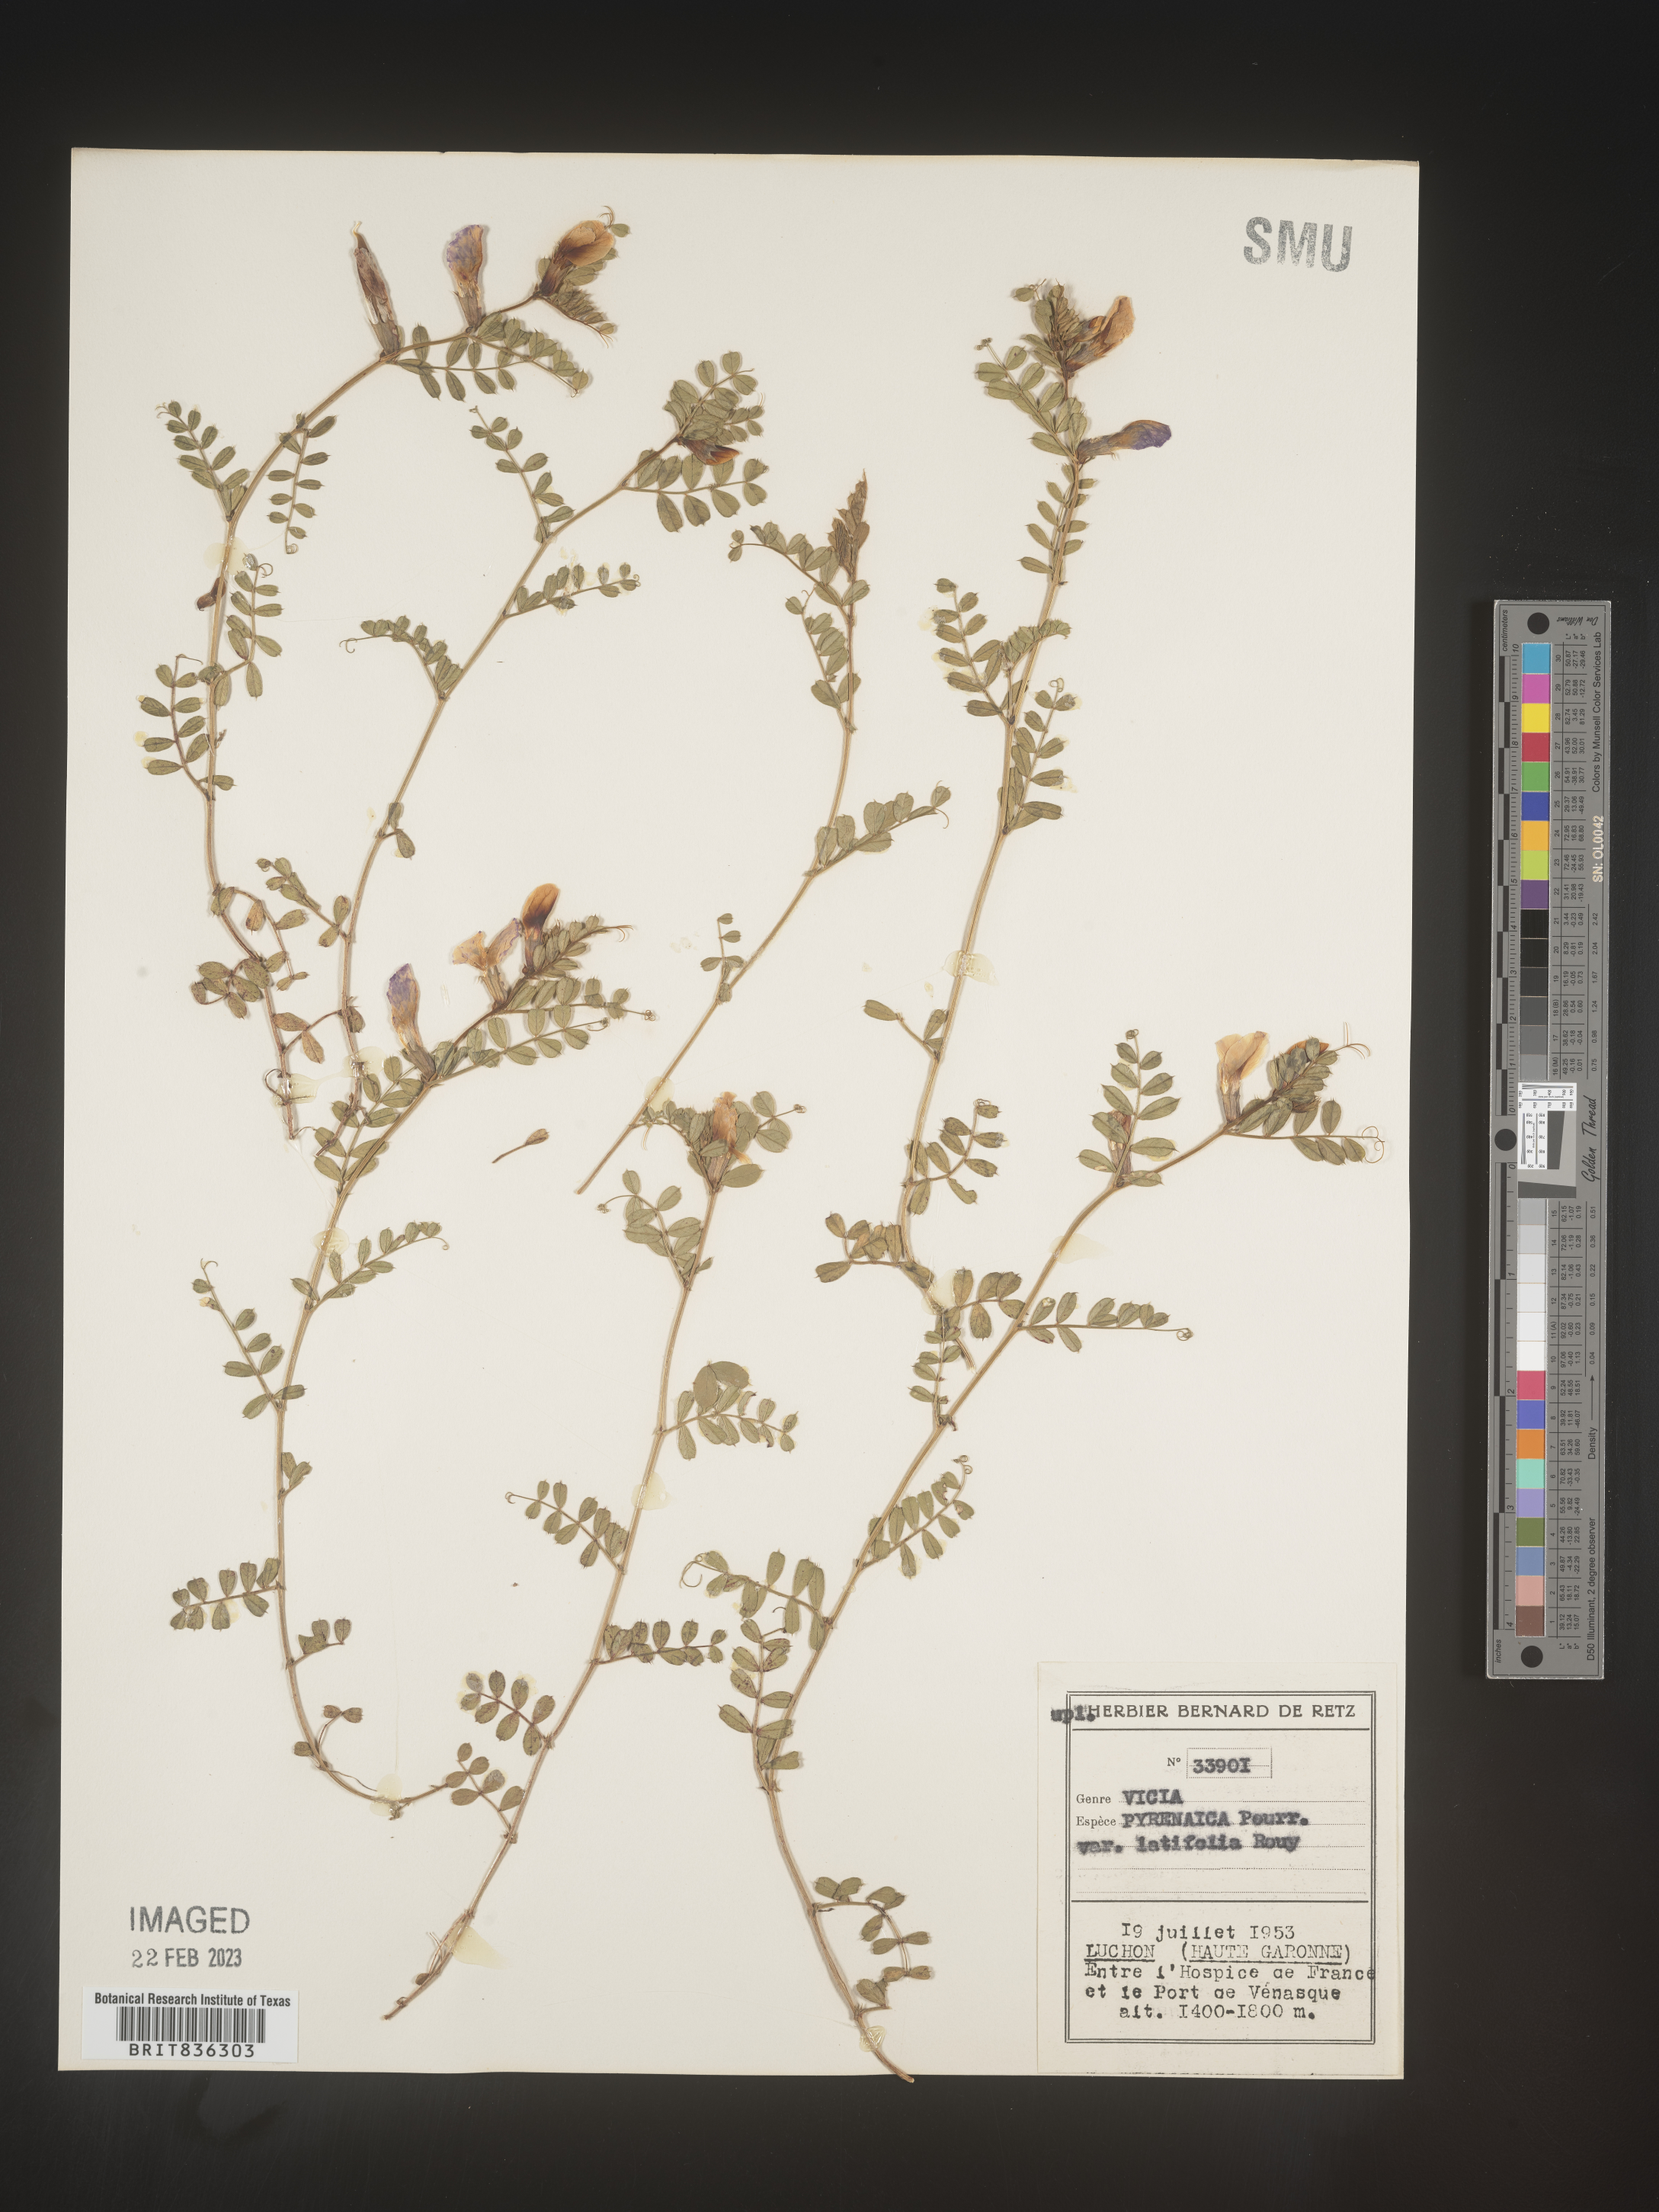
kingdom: Plantae
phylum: Tracheophyta
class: Magnoliopsida
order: Fabales
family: Fabaceae
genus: Vicia
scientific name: Vicia
